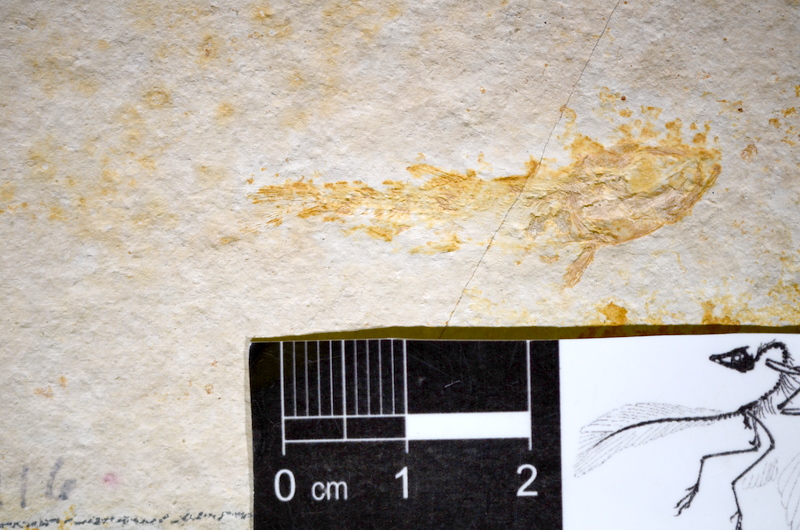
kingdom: Animalia
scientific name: Animalia
